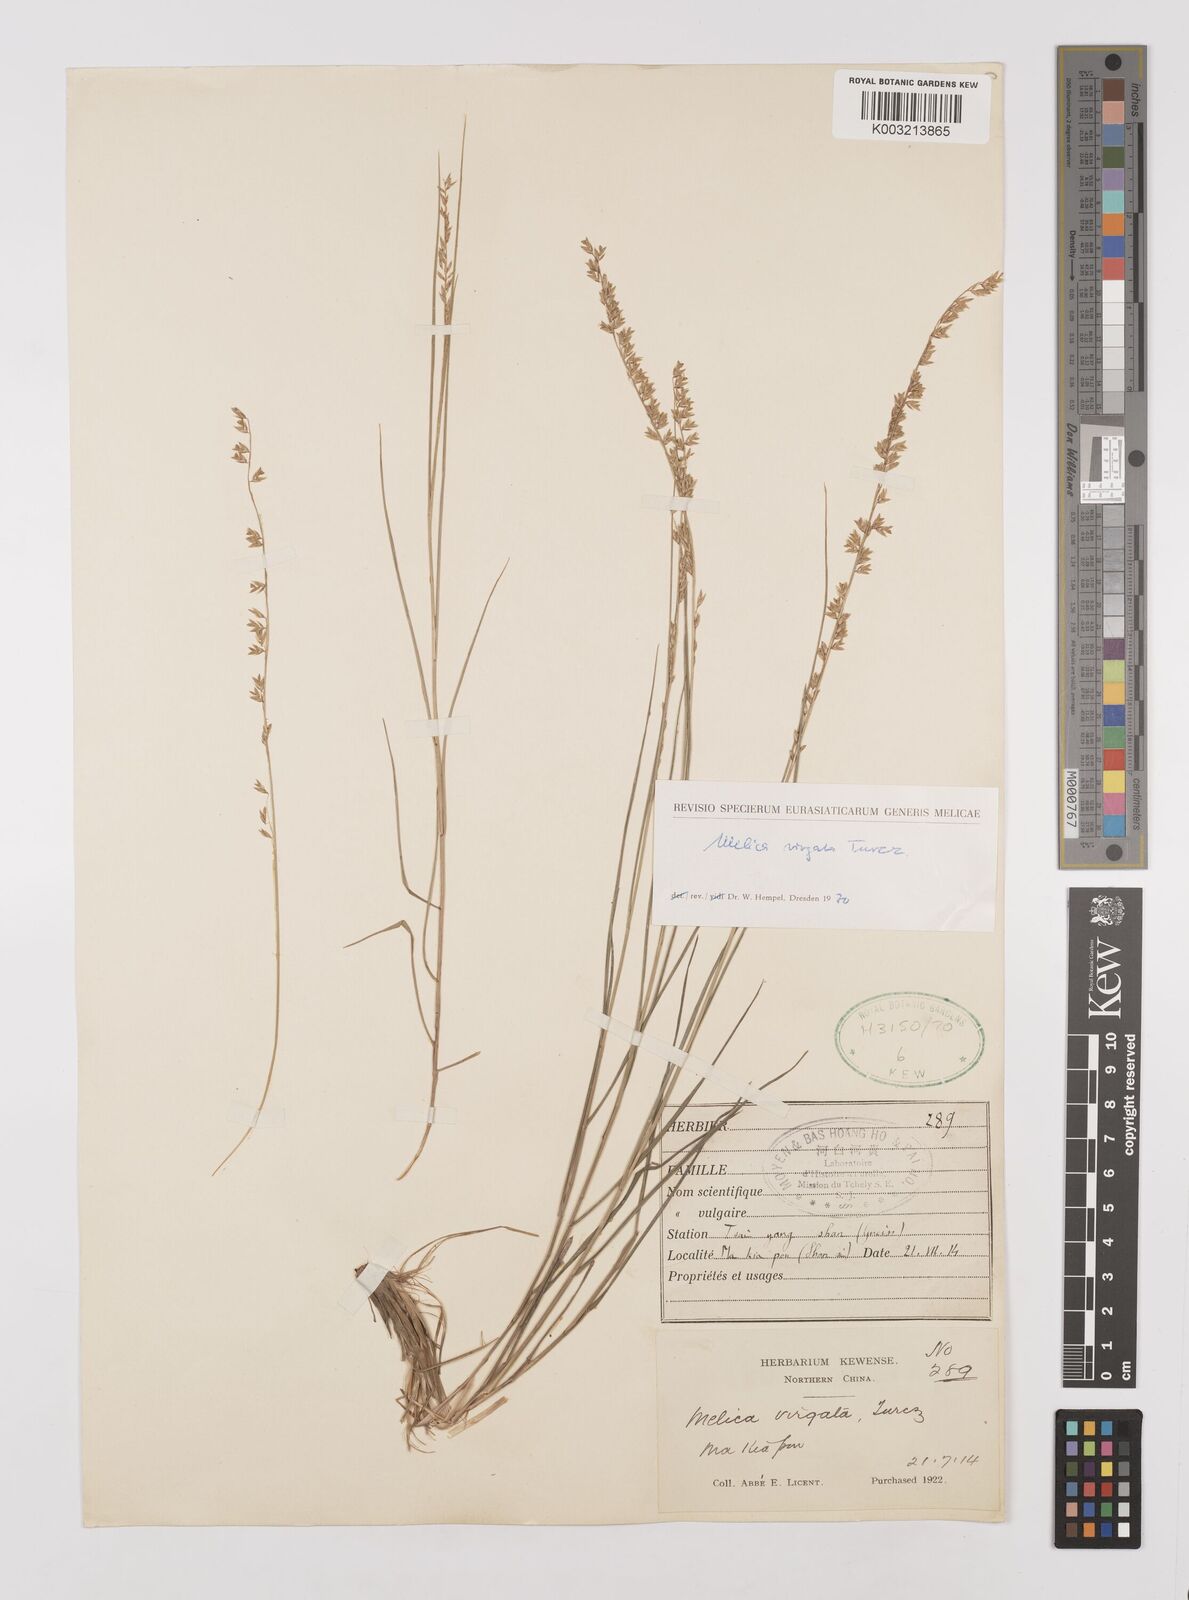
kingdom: Plantae
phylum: Tracheophyta
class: Liliopsida
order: Poales
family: Poaceae
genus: Melica
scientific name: Melica virgata
